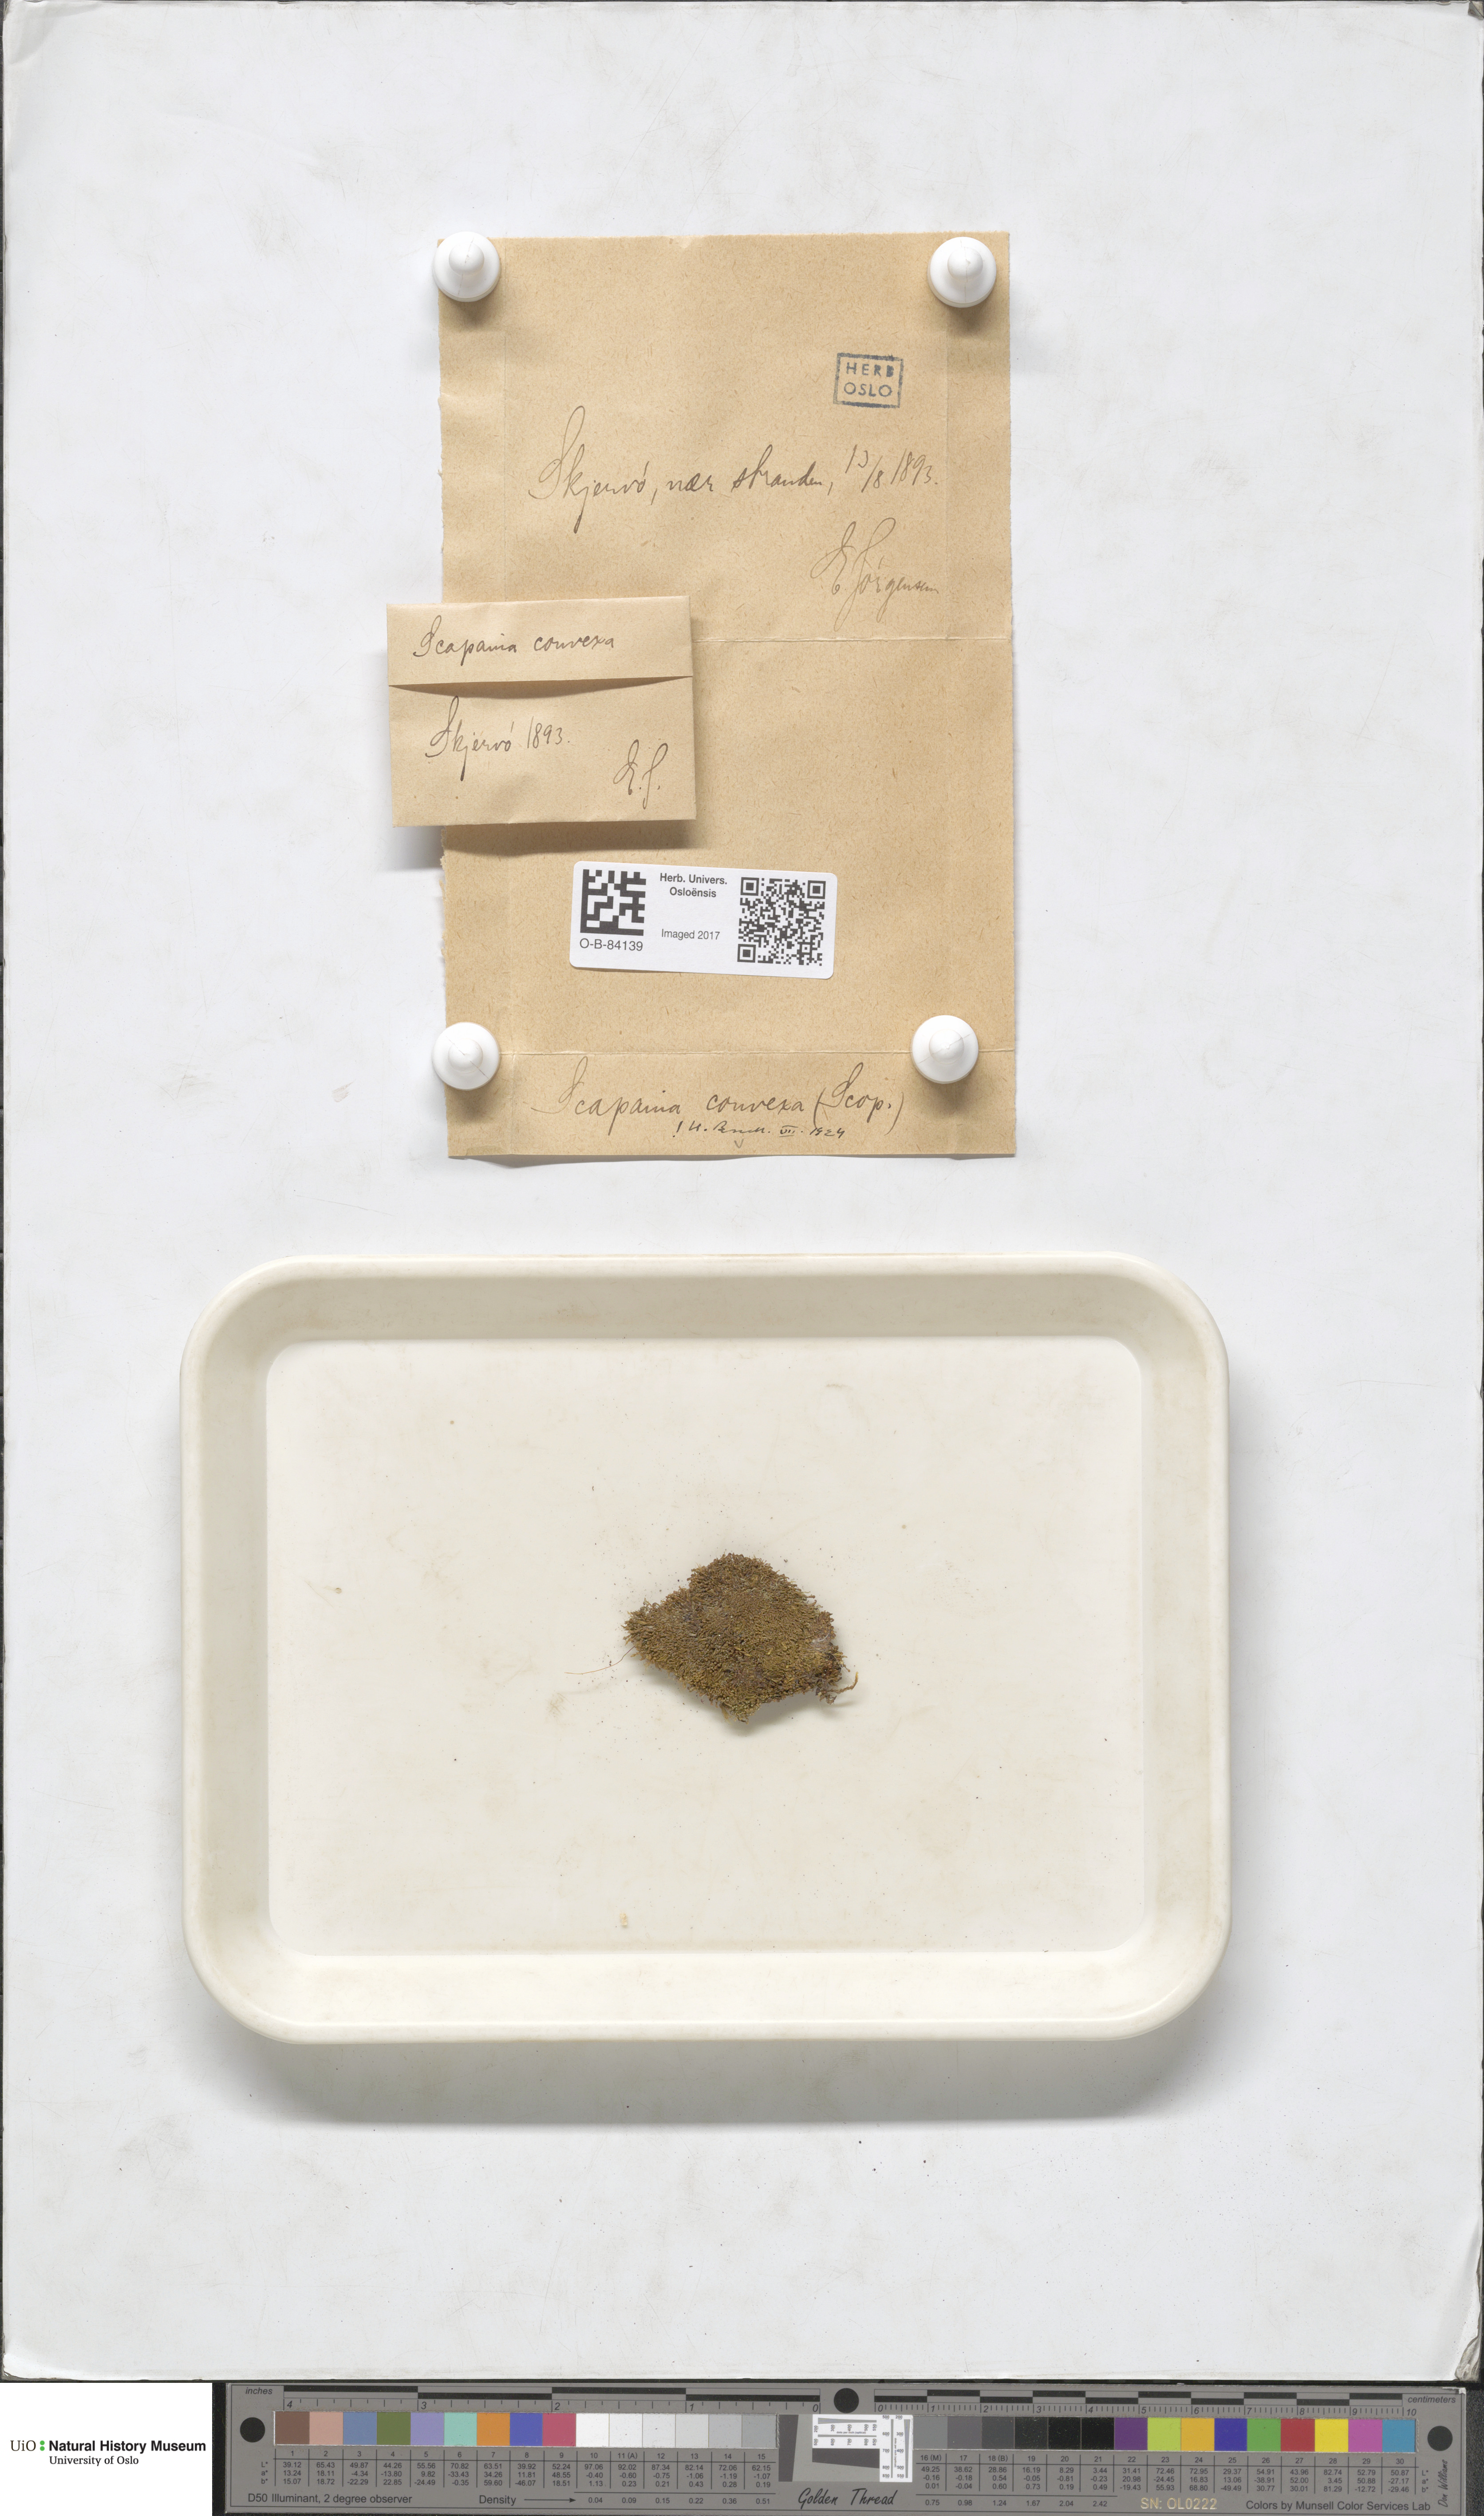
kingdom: Plantae
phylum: Marchantiophyta
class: Jungermanniopsida
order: Jungermanniales
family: Scapaniaceae
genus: Scapania
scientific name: Scapania umbrosa
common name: Shady earwort
